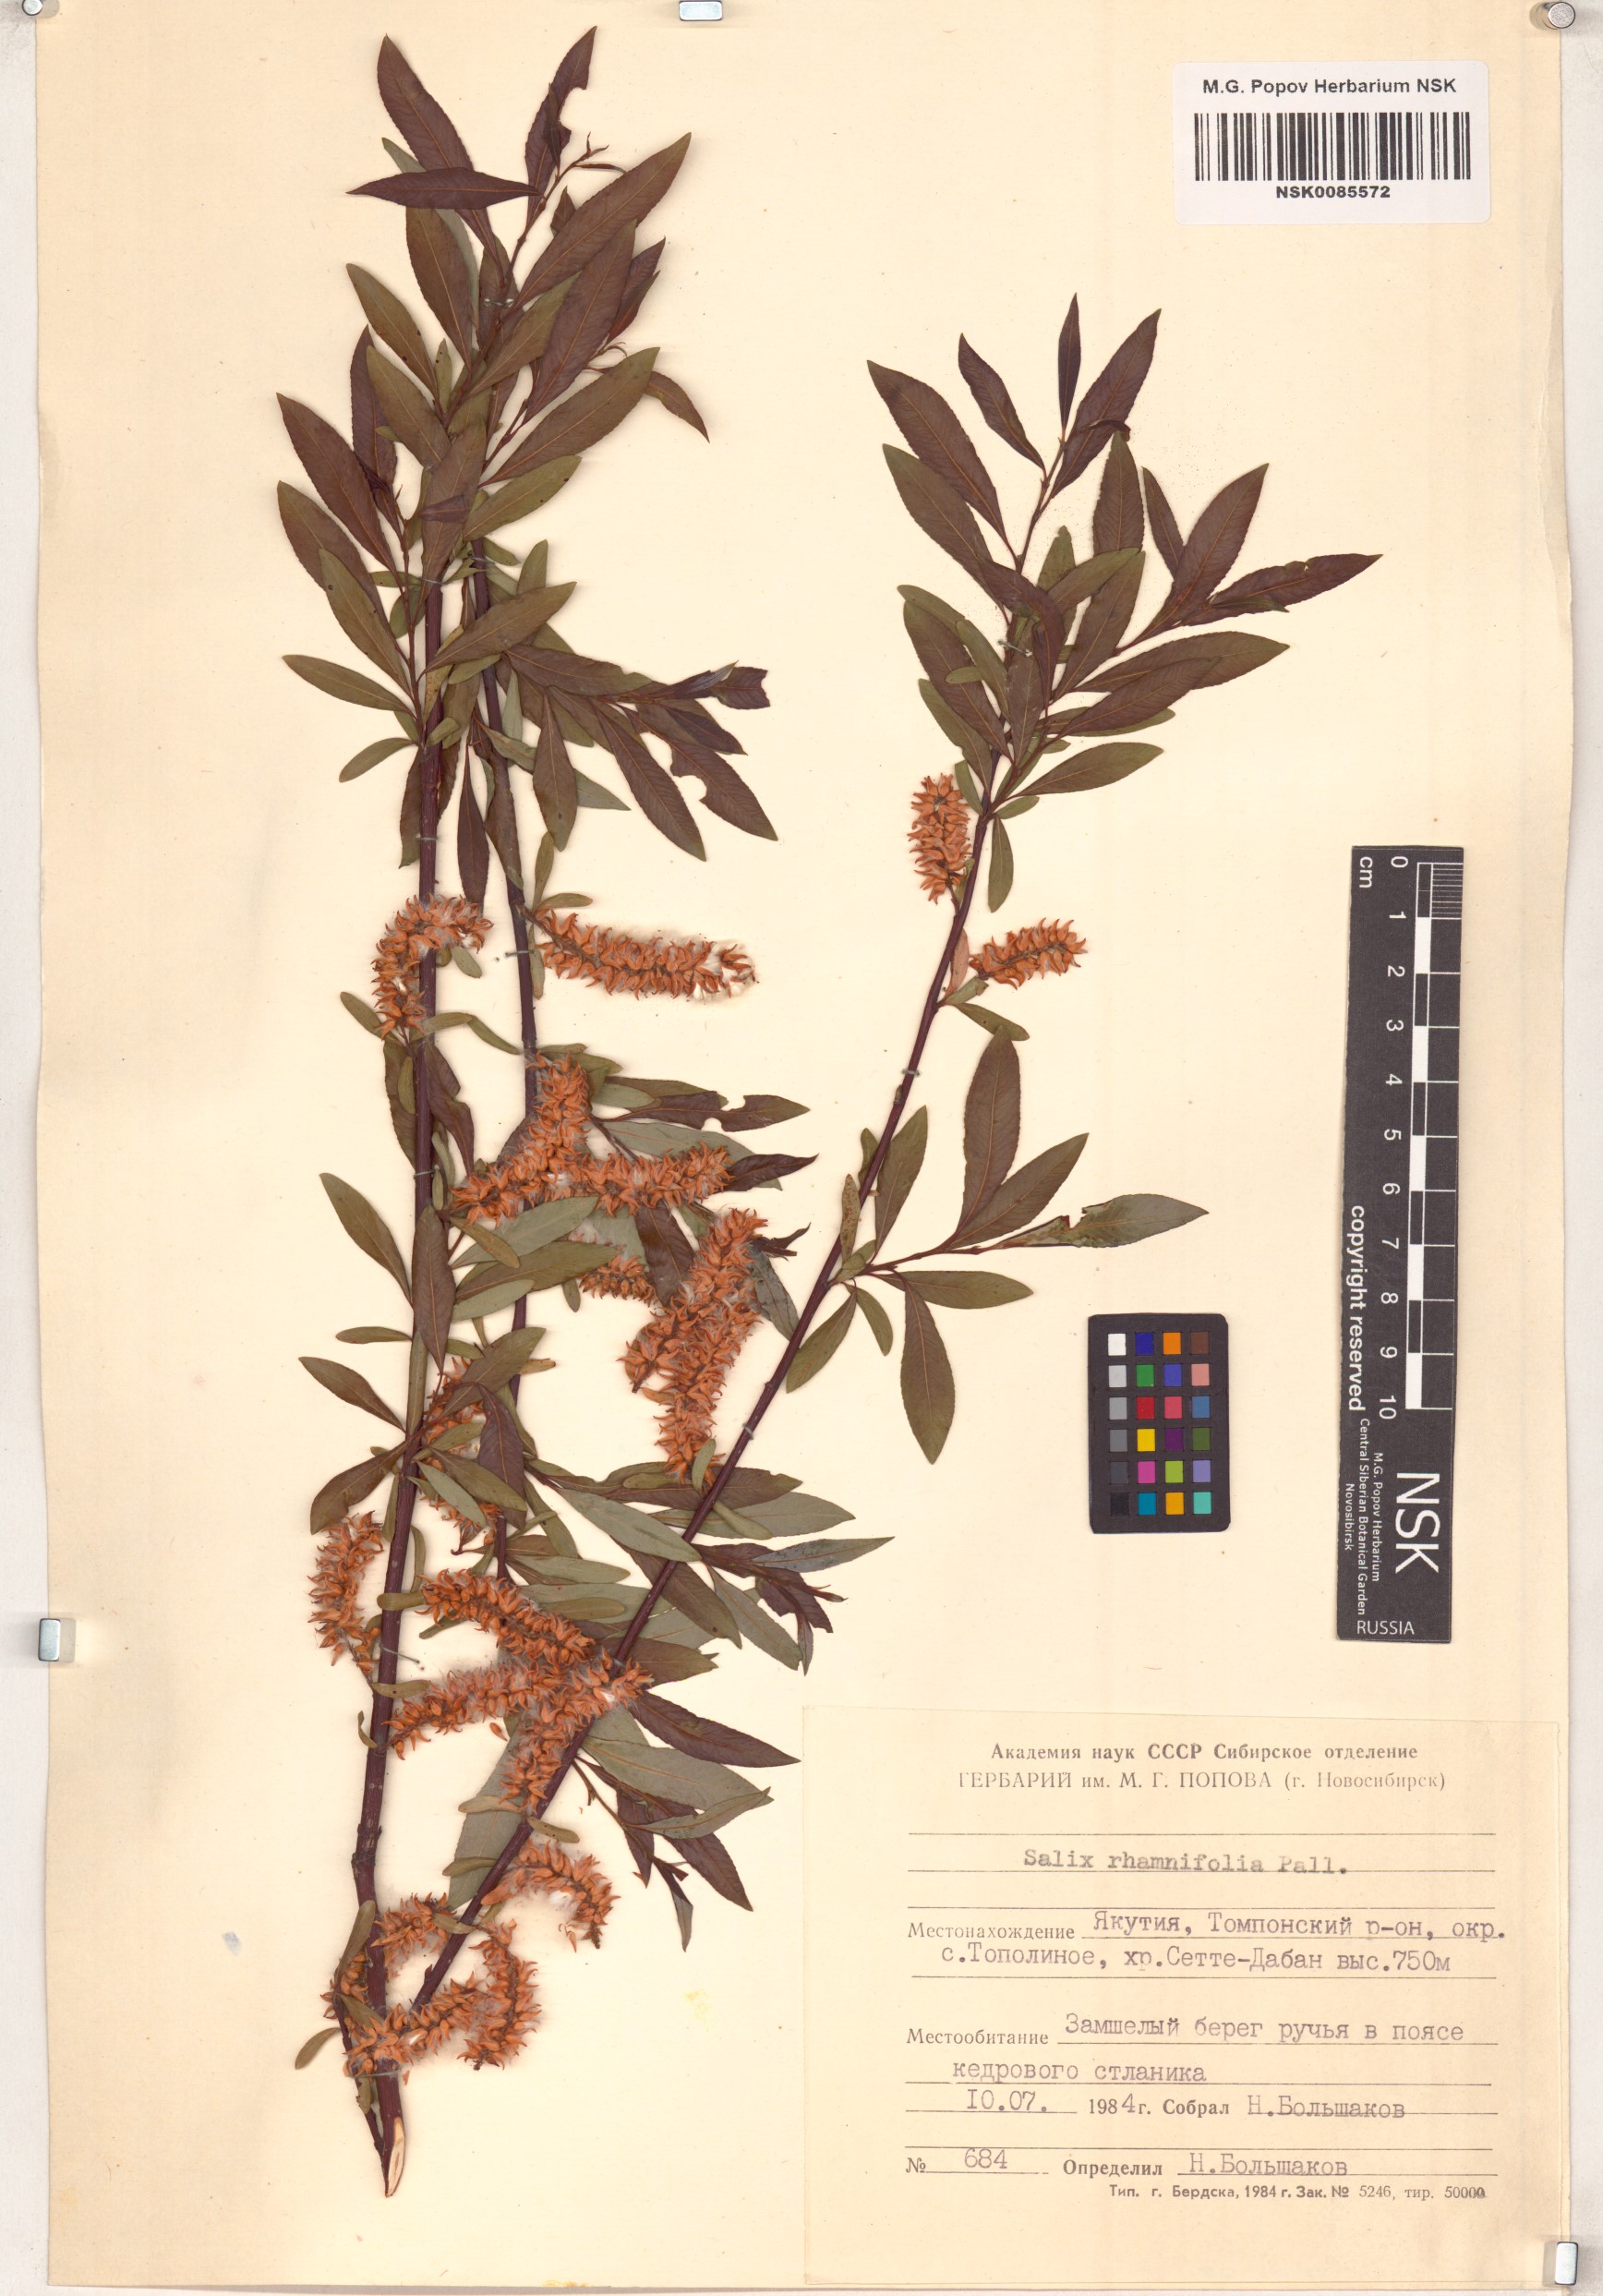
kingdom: Plantae
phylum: Tracheophyta
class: Magnoliopsida
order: Malpighiales
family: Salicaceae
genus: Salix
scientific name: Salix rhamnifolia
